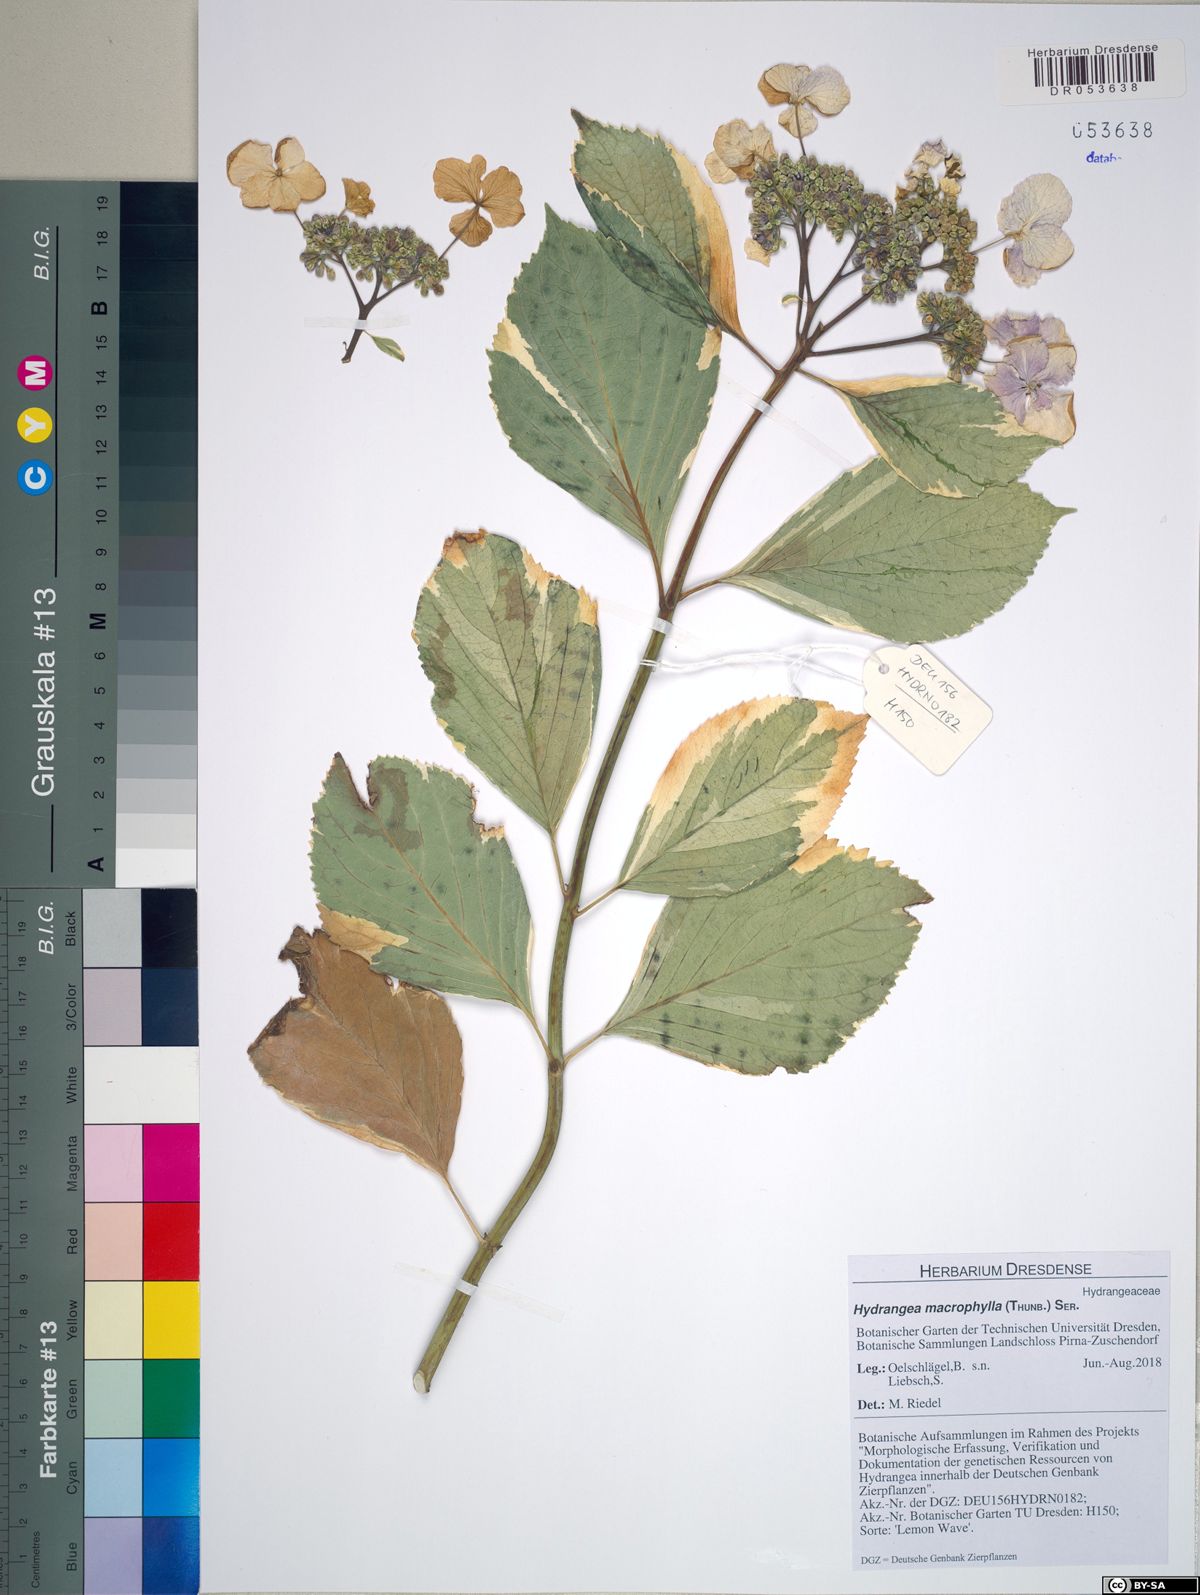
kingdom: Plantae
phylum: Tracheophyta
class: Magnoliopsida
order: Cornales
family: Hydrangeaceae
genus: Hydrangea
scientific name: Hydrangea macrophylla
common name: Hydrangea
